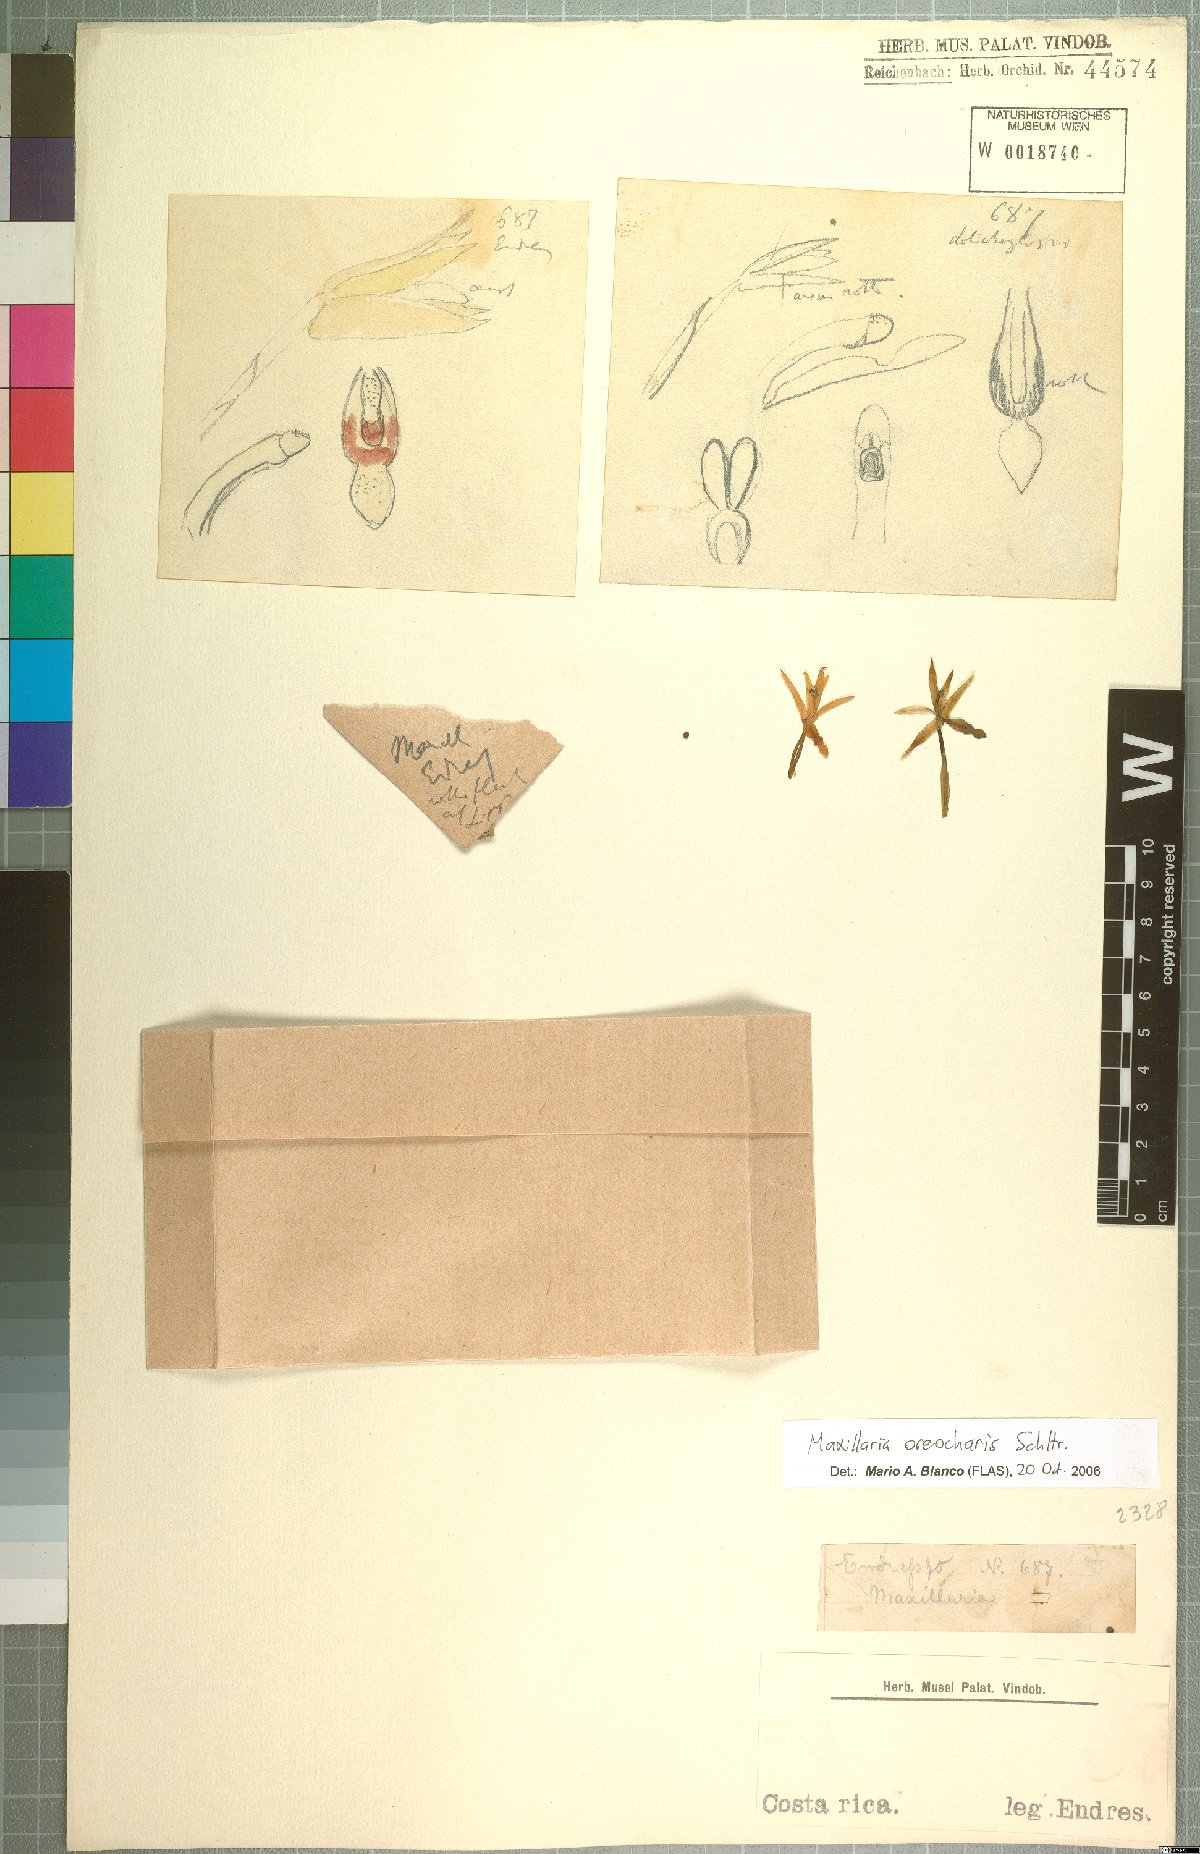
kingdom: Plantae
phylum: Tracheophyta
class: Liliopsida
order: Asparagales
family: Orchidaceae
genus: Maxillaria
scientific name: Maxillaria oreocharis
